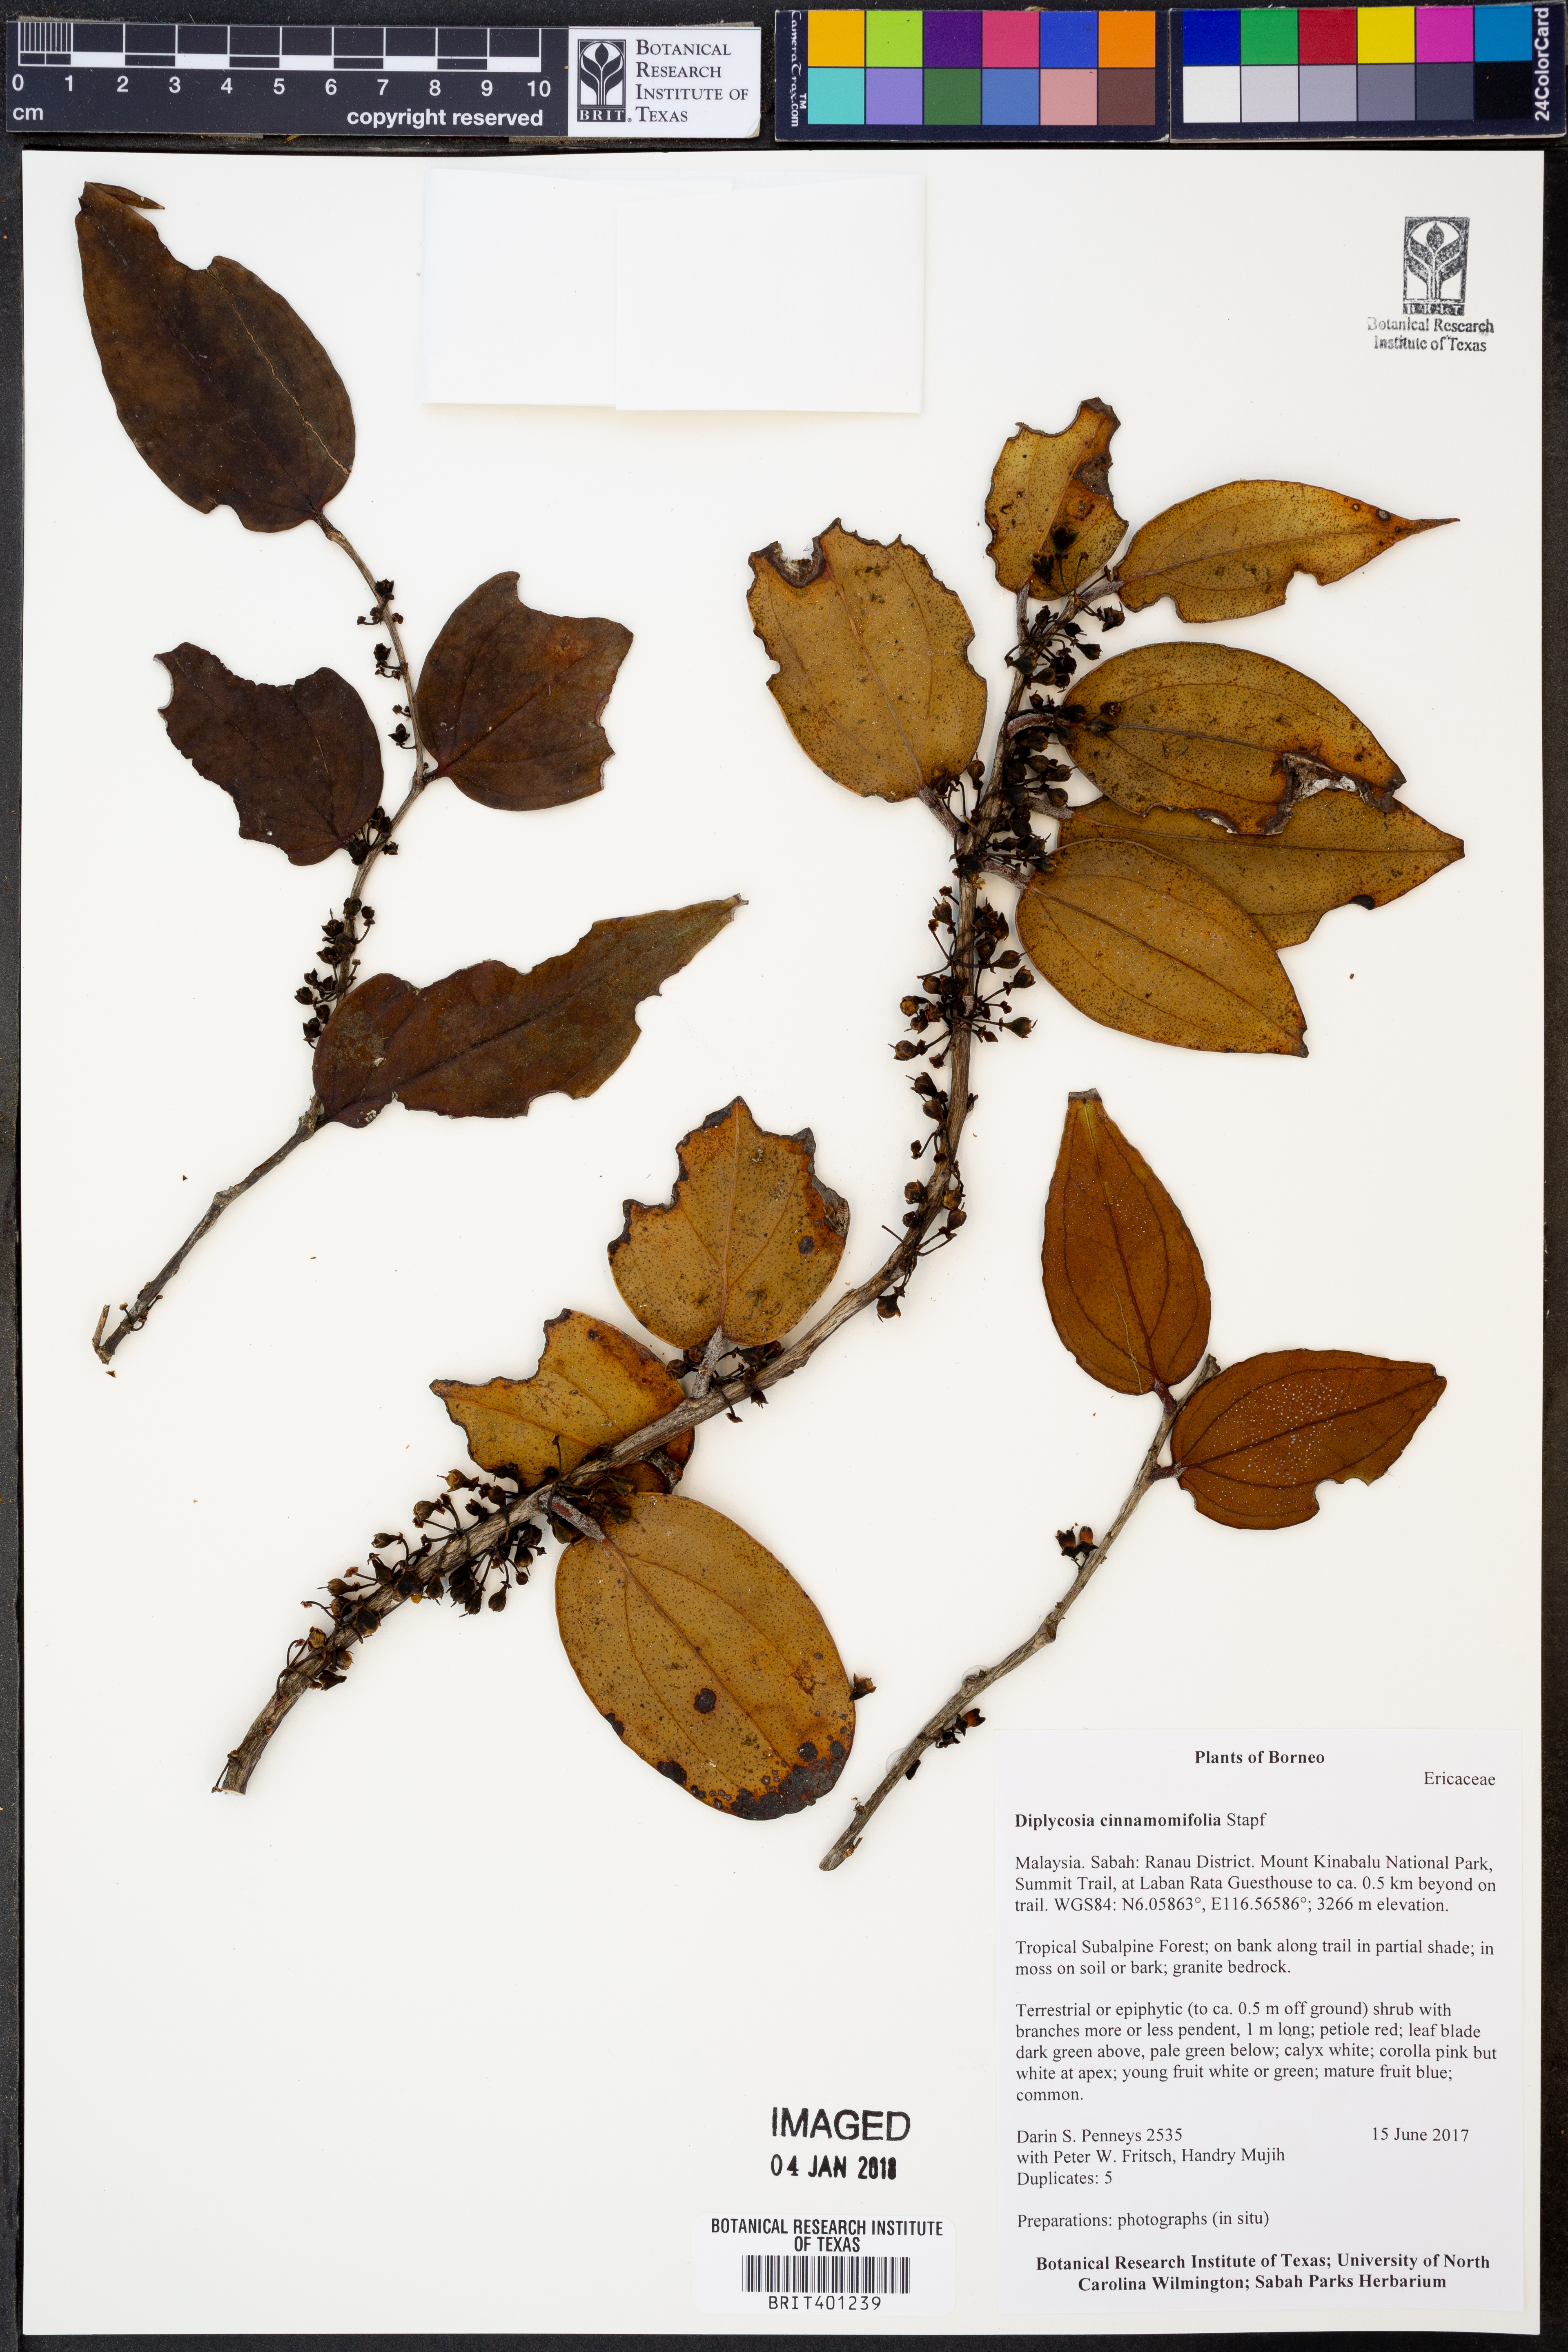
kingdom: Plantae
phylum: Tracheophyta
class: Magnoliopsida
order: Ericales
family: Ericaceae
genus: Gaultheria
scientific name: Gaultheria cinnamomifolia
